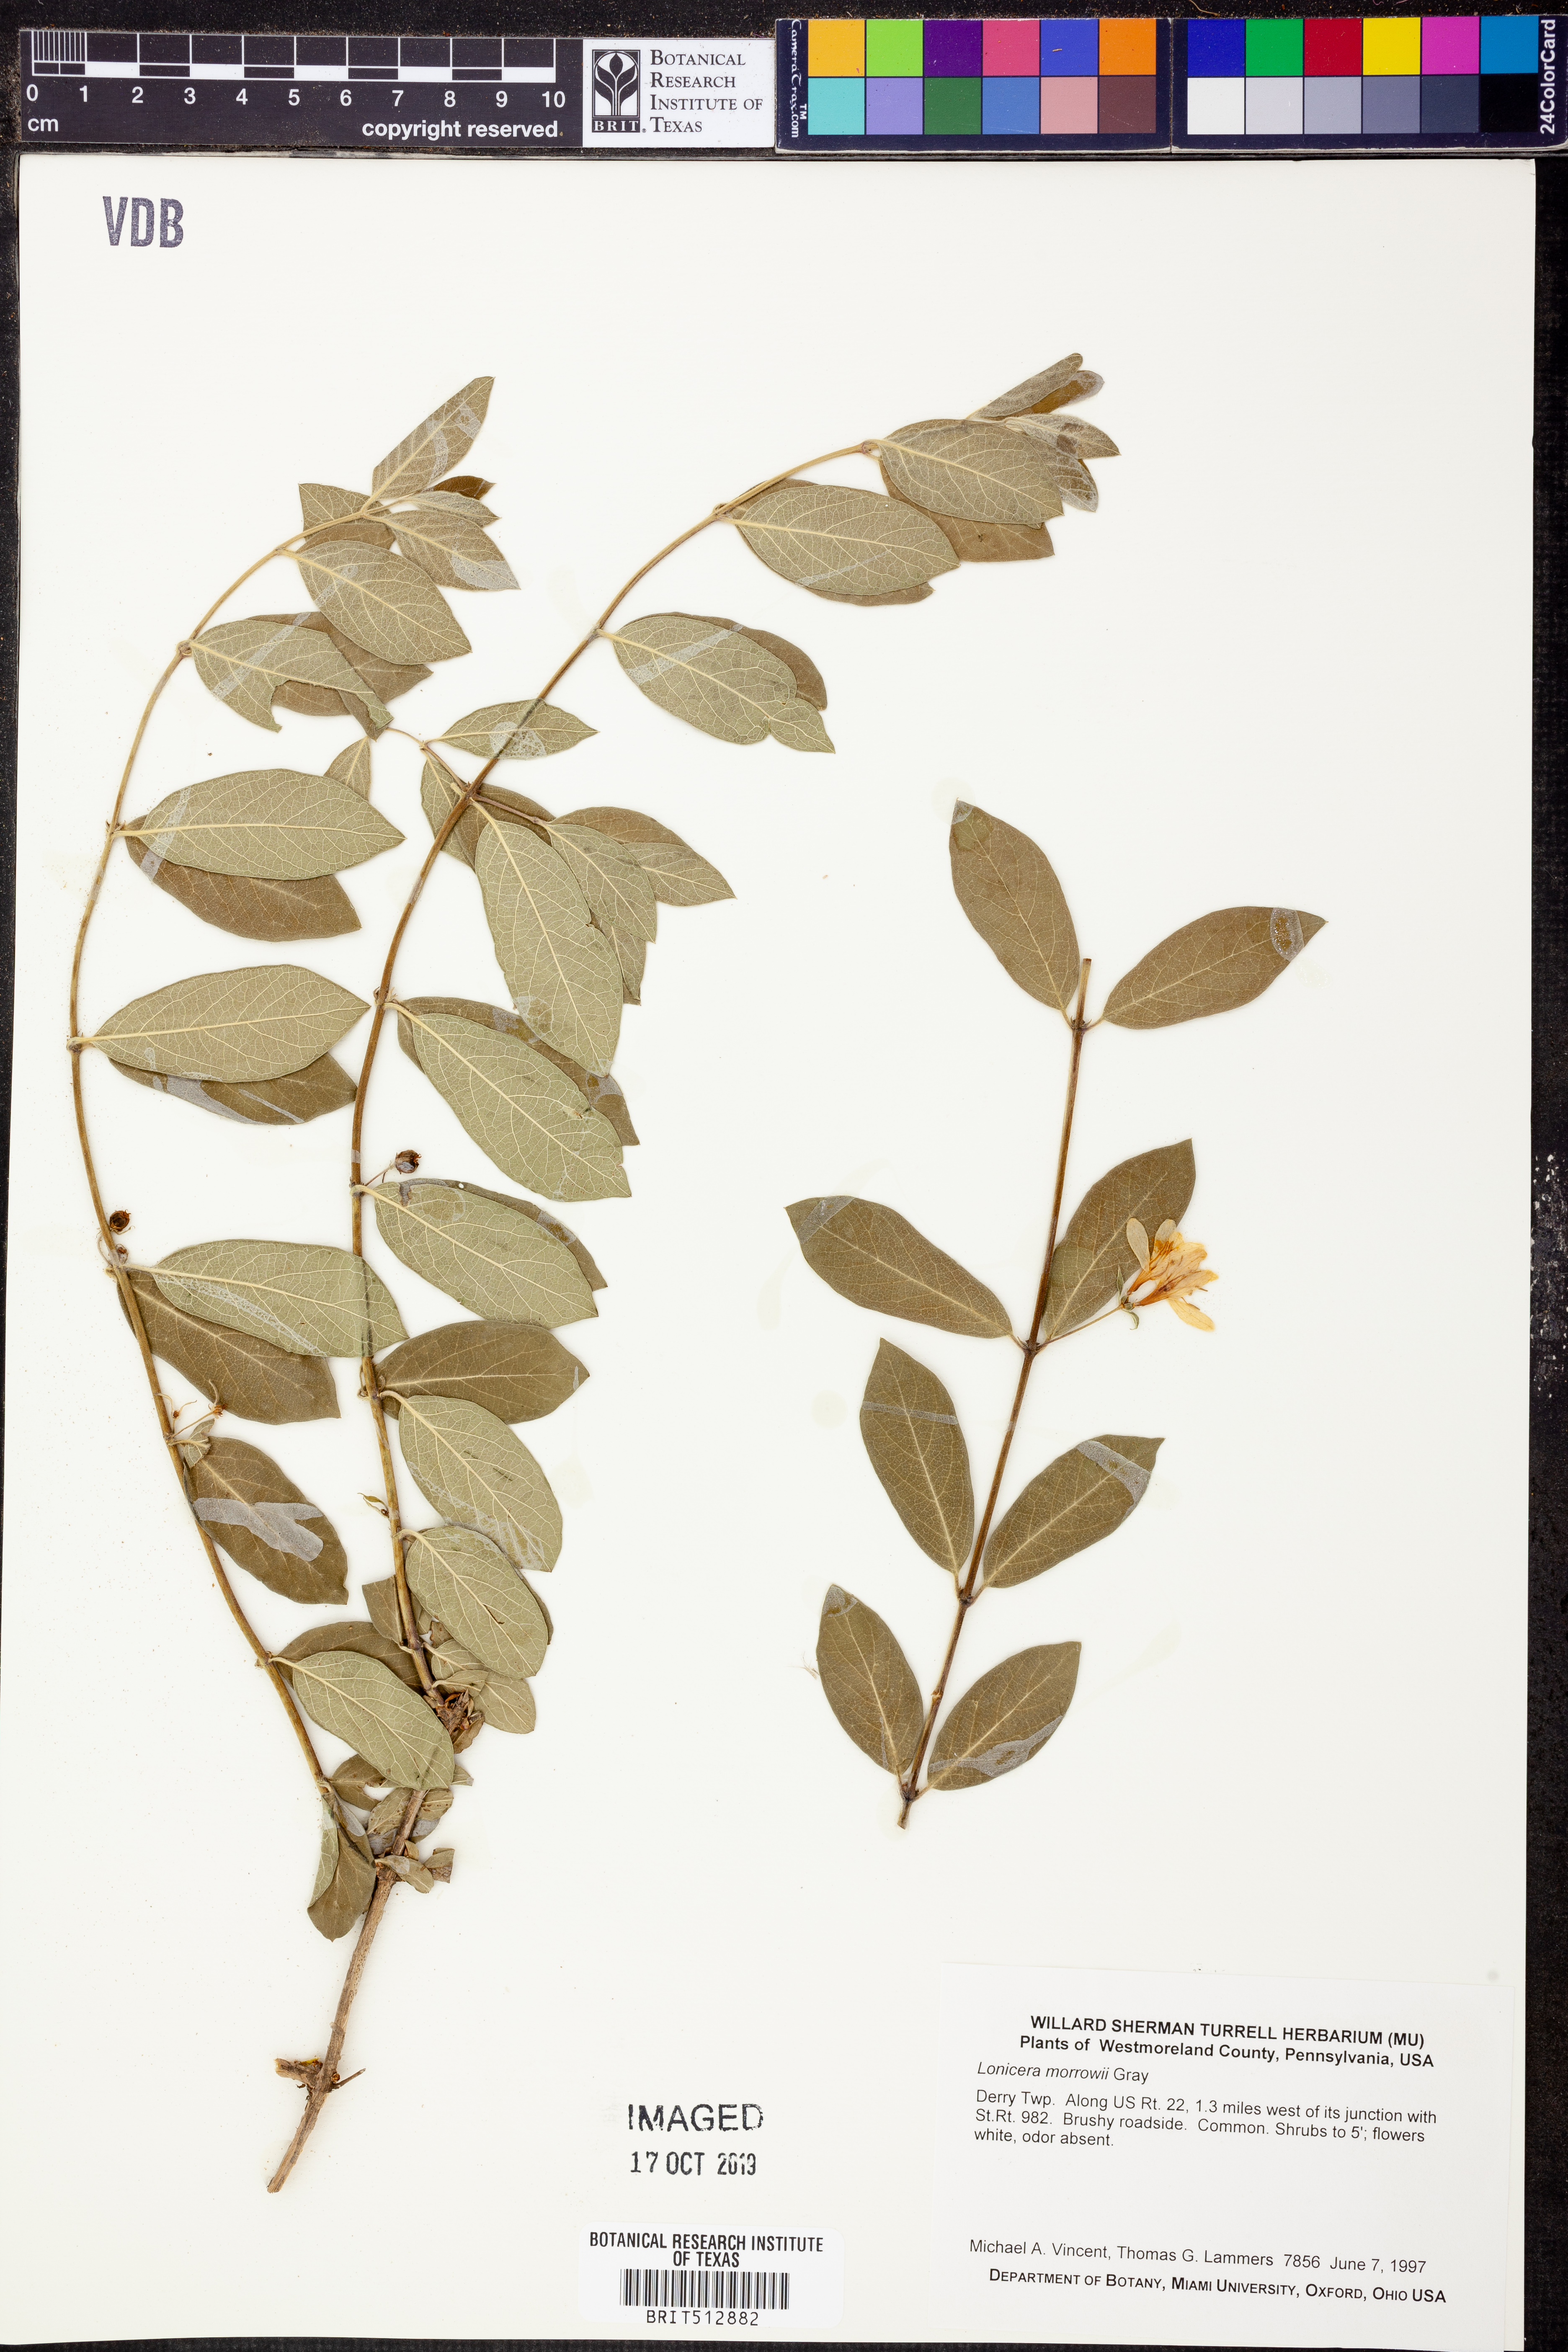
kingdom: Plantae
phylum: Tracheophyta
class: Magnoliopsida
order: Dipsacales
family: Caprifoliaceae
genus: Lonicera
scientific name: Lonicera morrowii
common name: Morrow's honeysuckle
